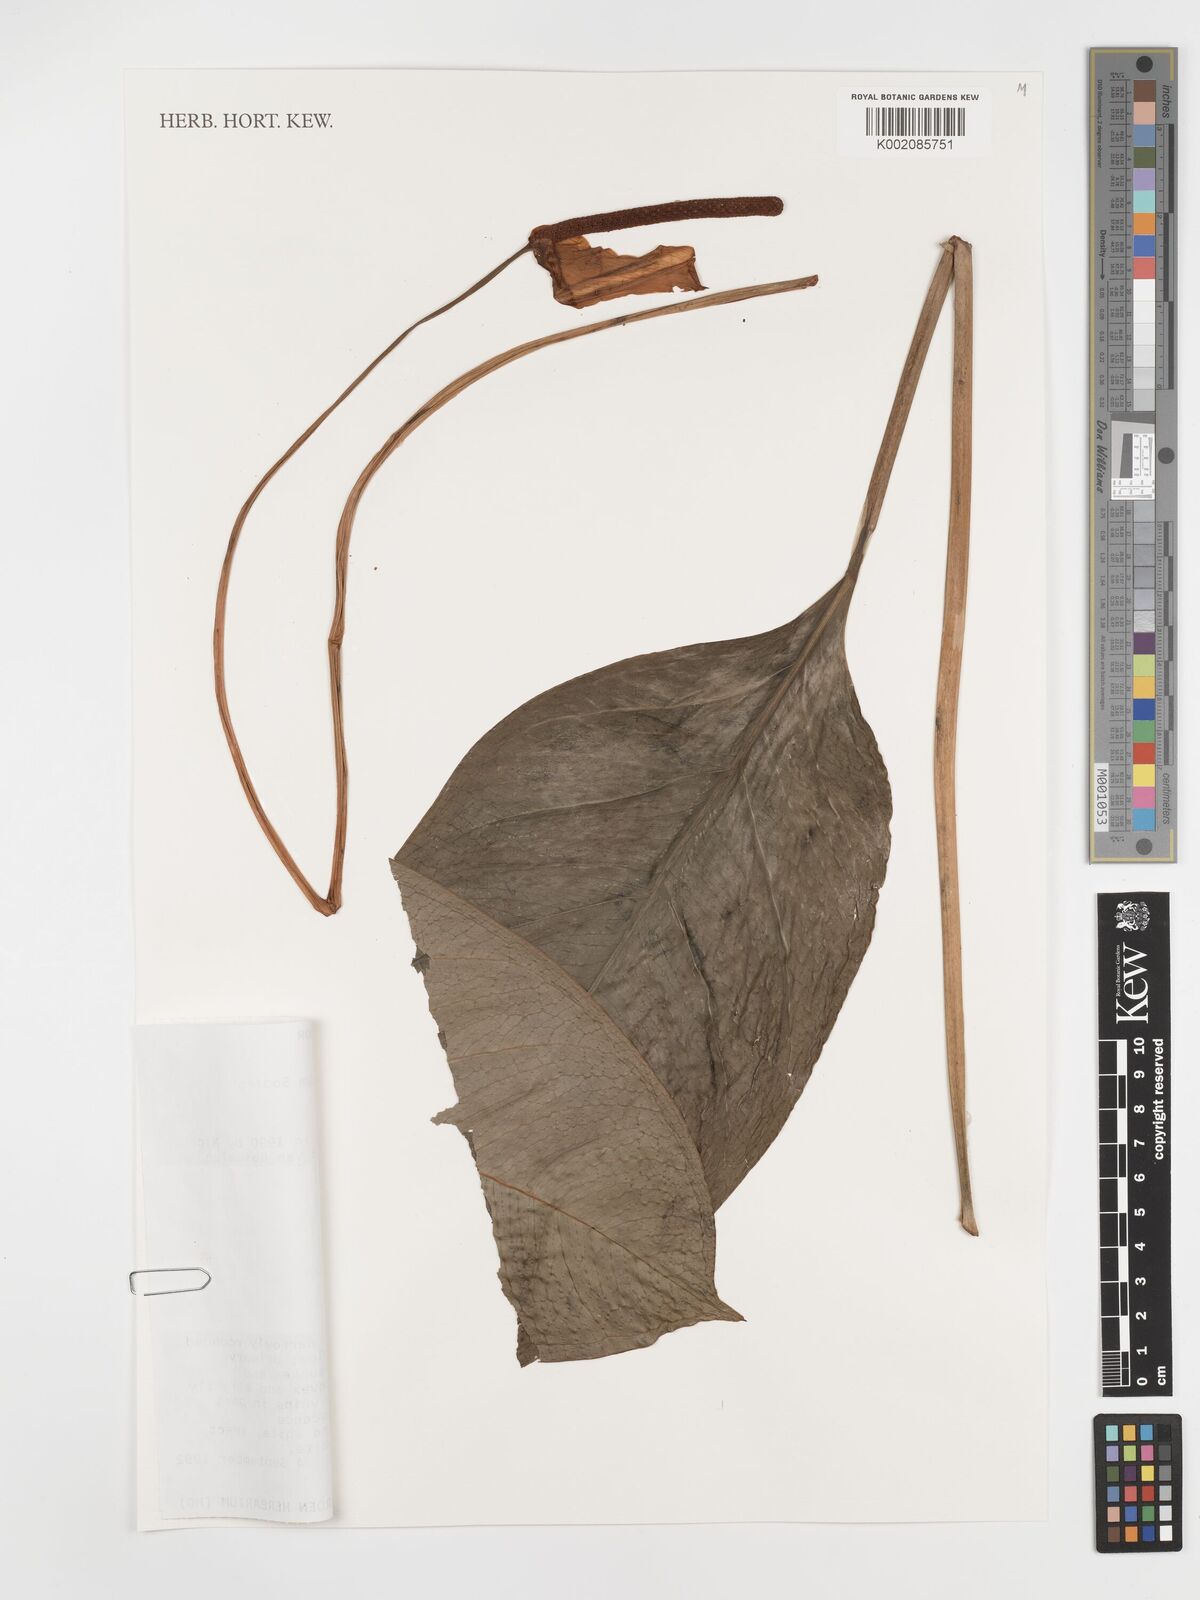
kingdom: Plantae
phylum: Tracheophyta
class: Liliopsida
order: Alismatales
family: Araceae
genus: Anthurium
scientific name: Anthurium caulorrhizum
